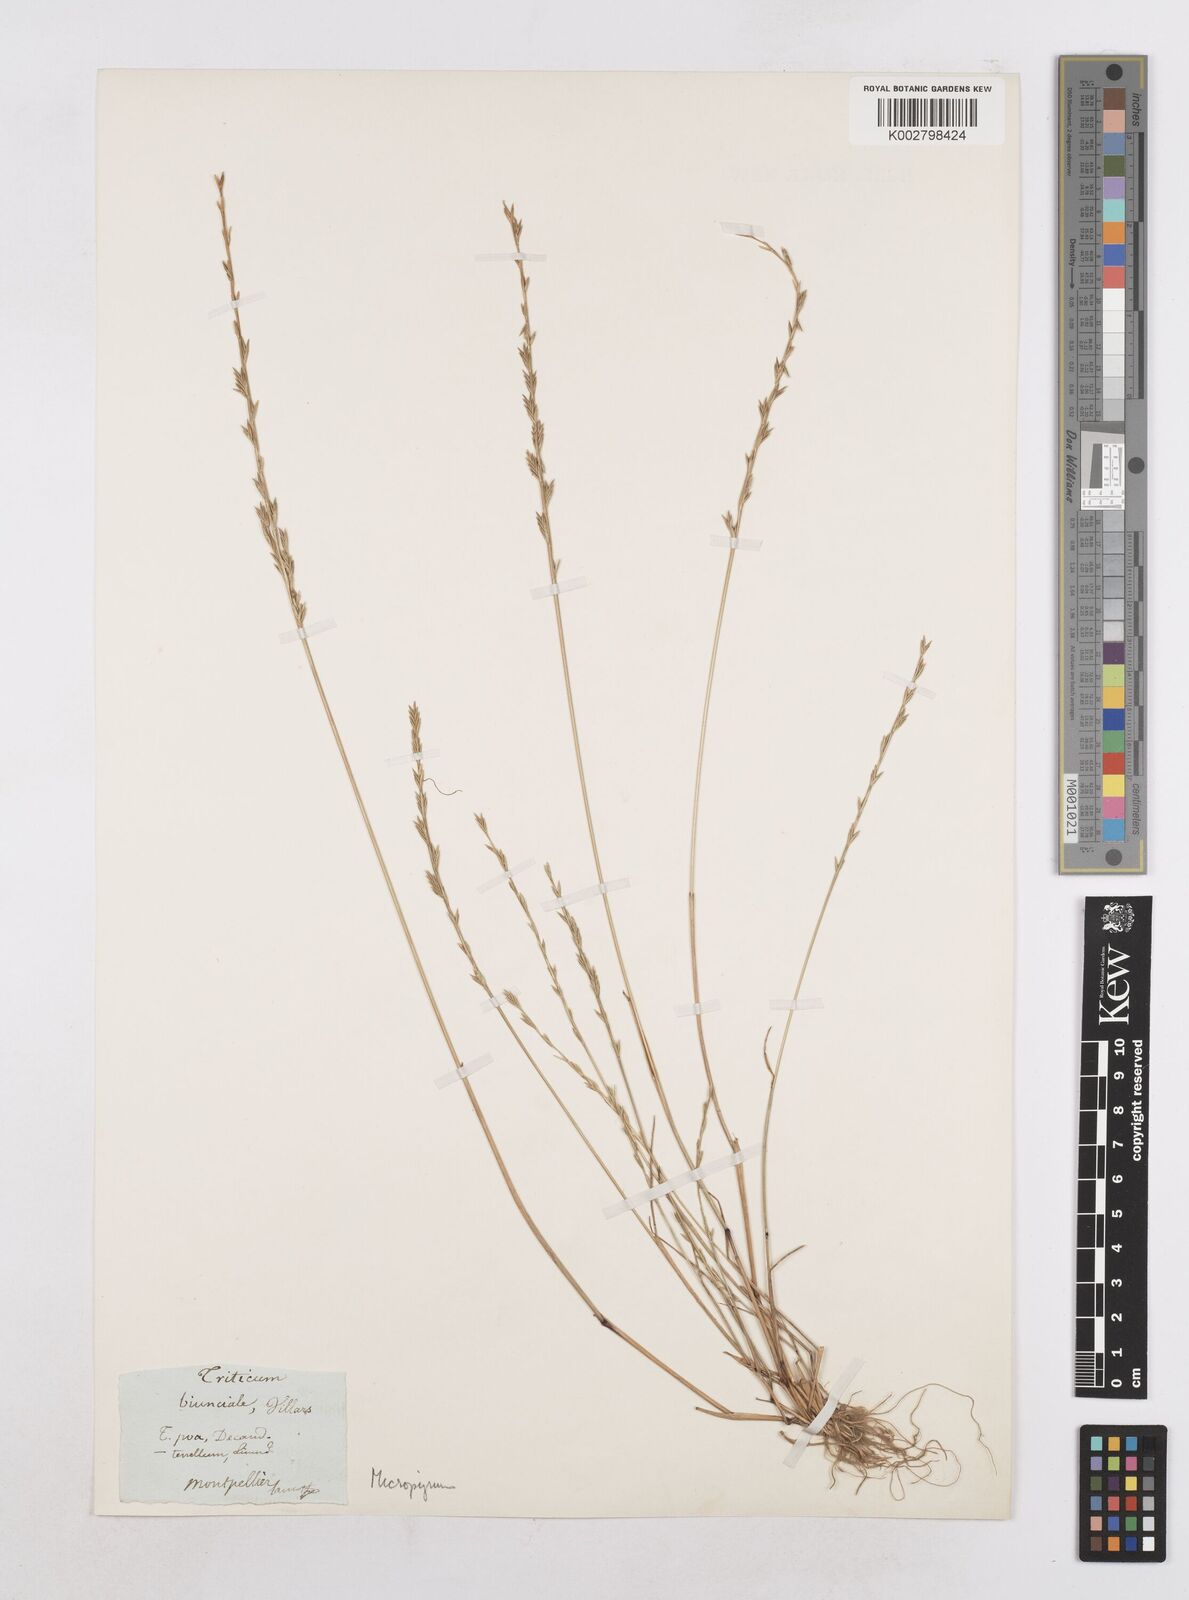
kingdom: Plantae
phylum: Tracheophyta
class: Liliopsida
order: Poales
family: Poaceae
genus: Festuca
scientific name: Festuca lachenalii
